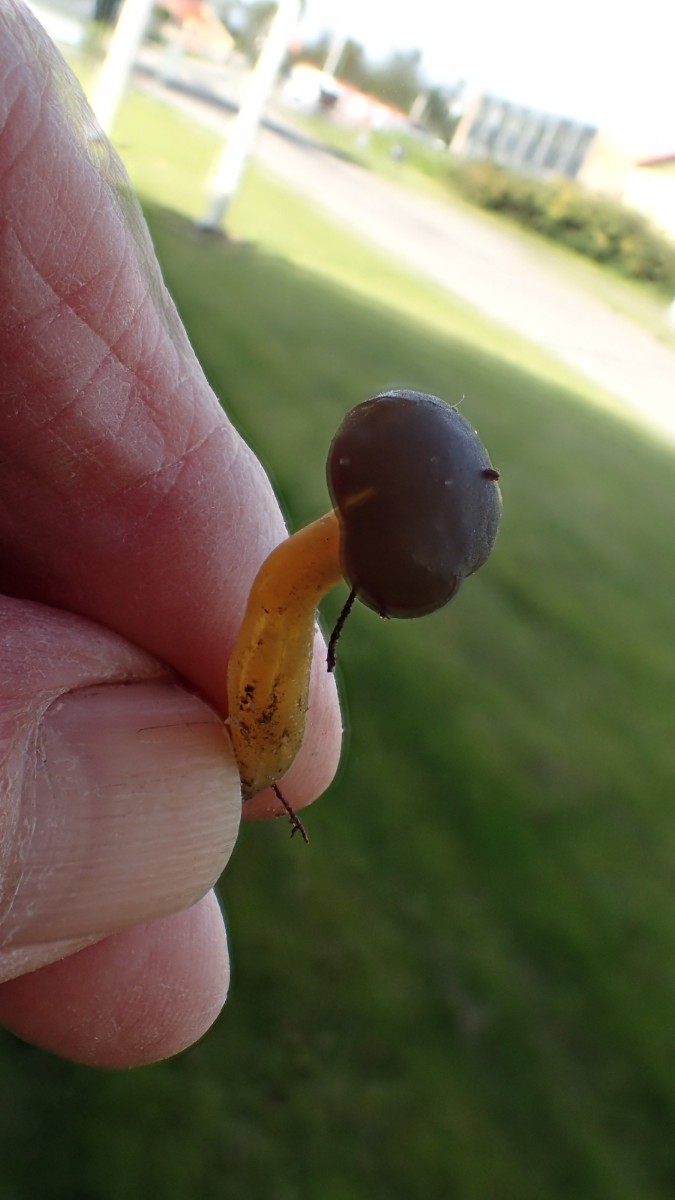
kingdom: Fungi
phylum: Ascomycota
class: Leotiomycetes
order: Leotiales
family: Leotiaceae
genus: Leotia
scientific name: Leotia lubrica
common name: ravsvamp
